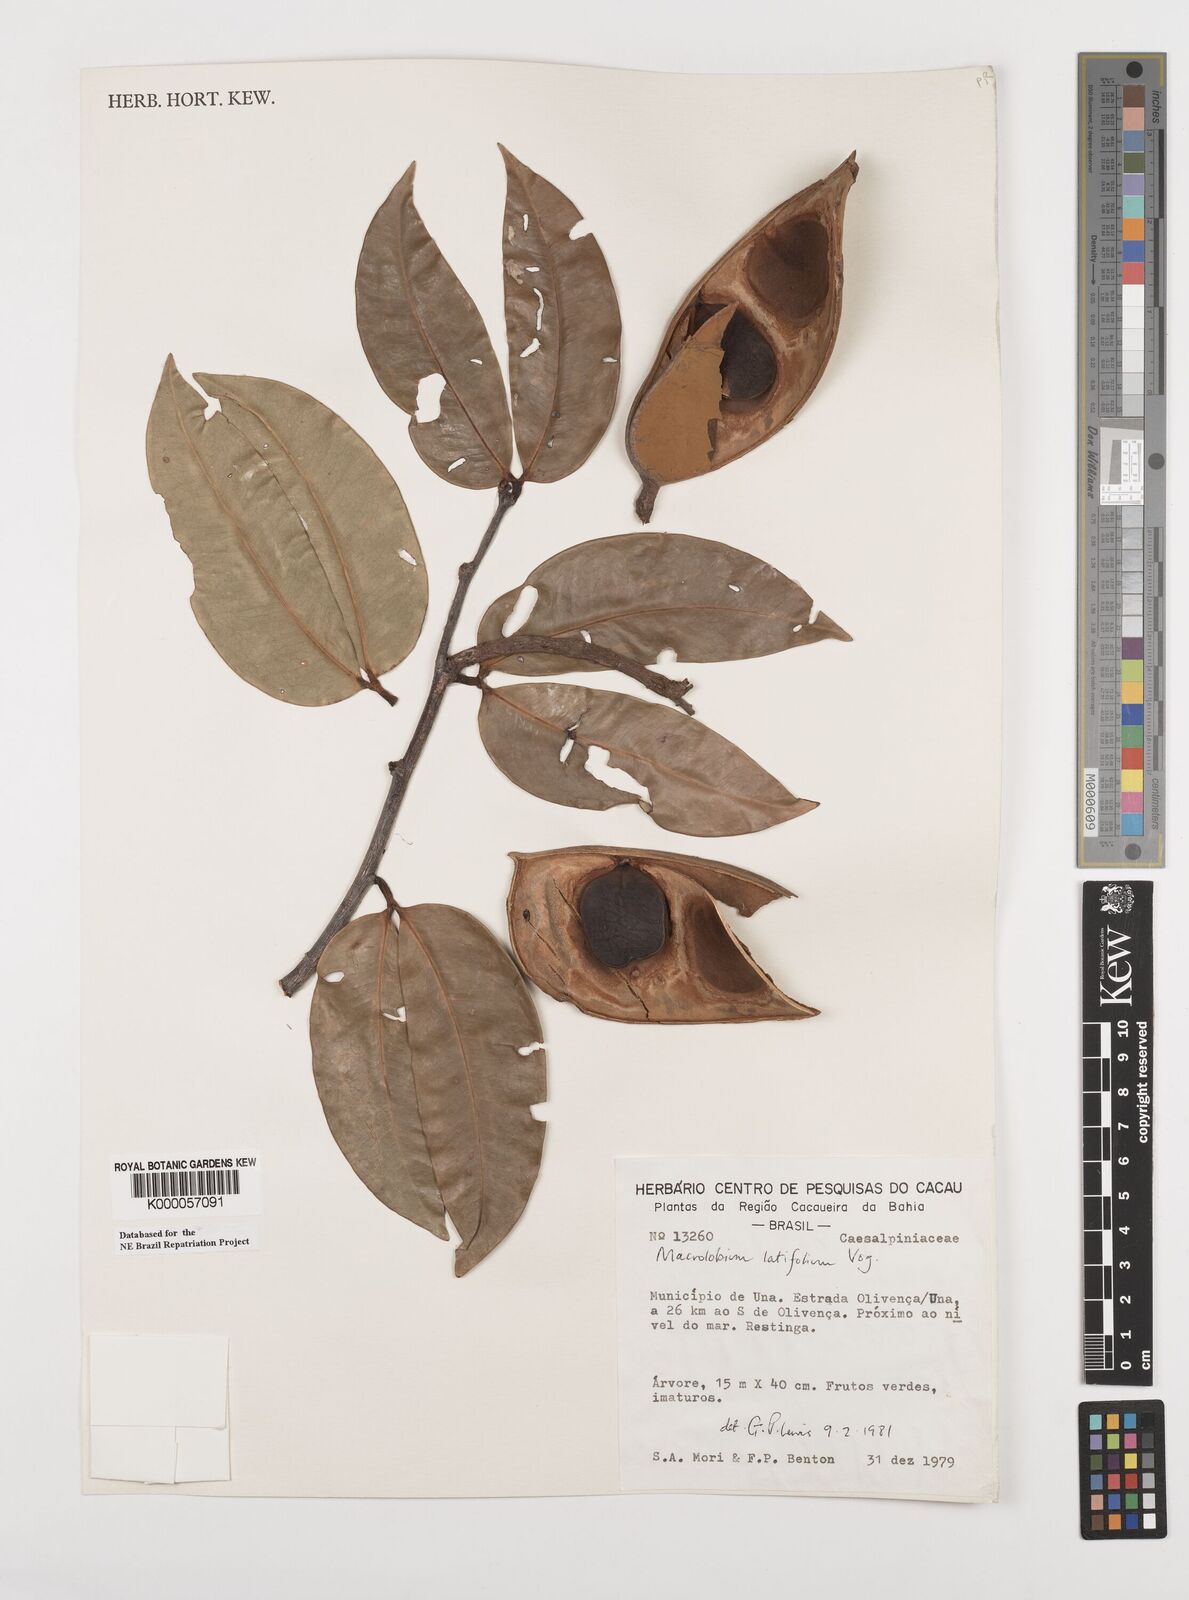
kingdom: Plantae
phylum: Tracheophyta
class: Magnoliopsida
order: Fabales
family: Fabaceae
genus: Macrolobium
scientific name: Macrolobium latifolium
